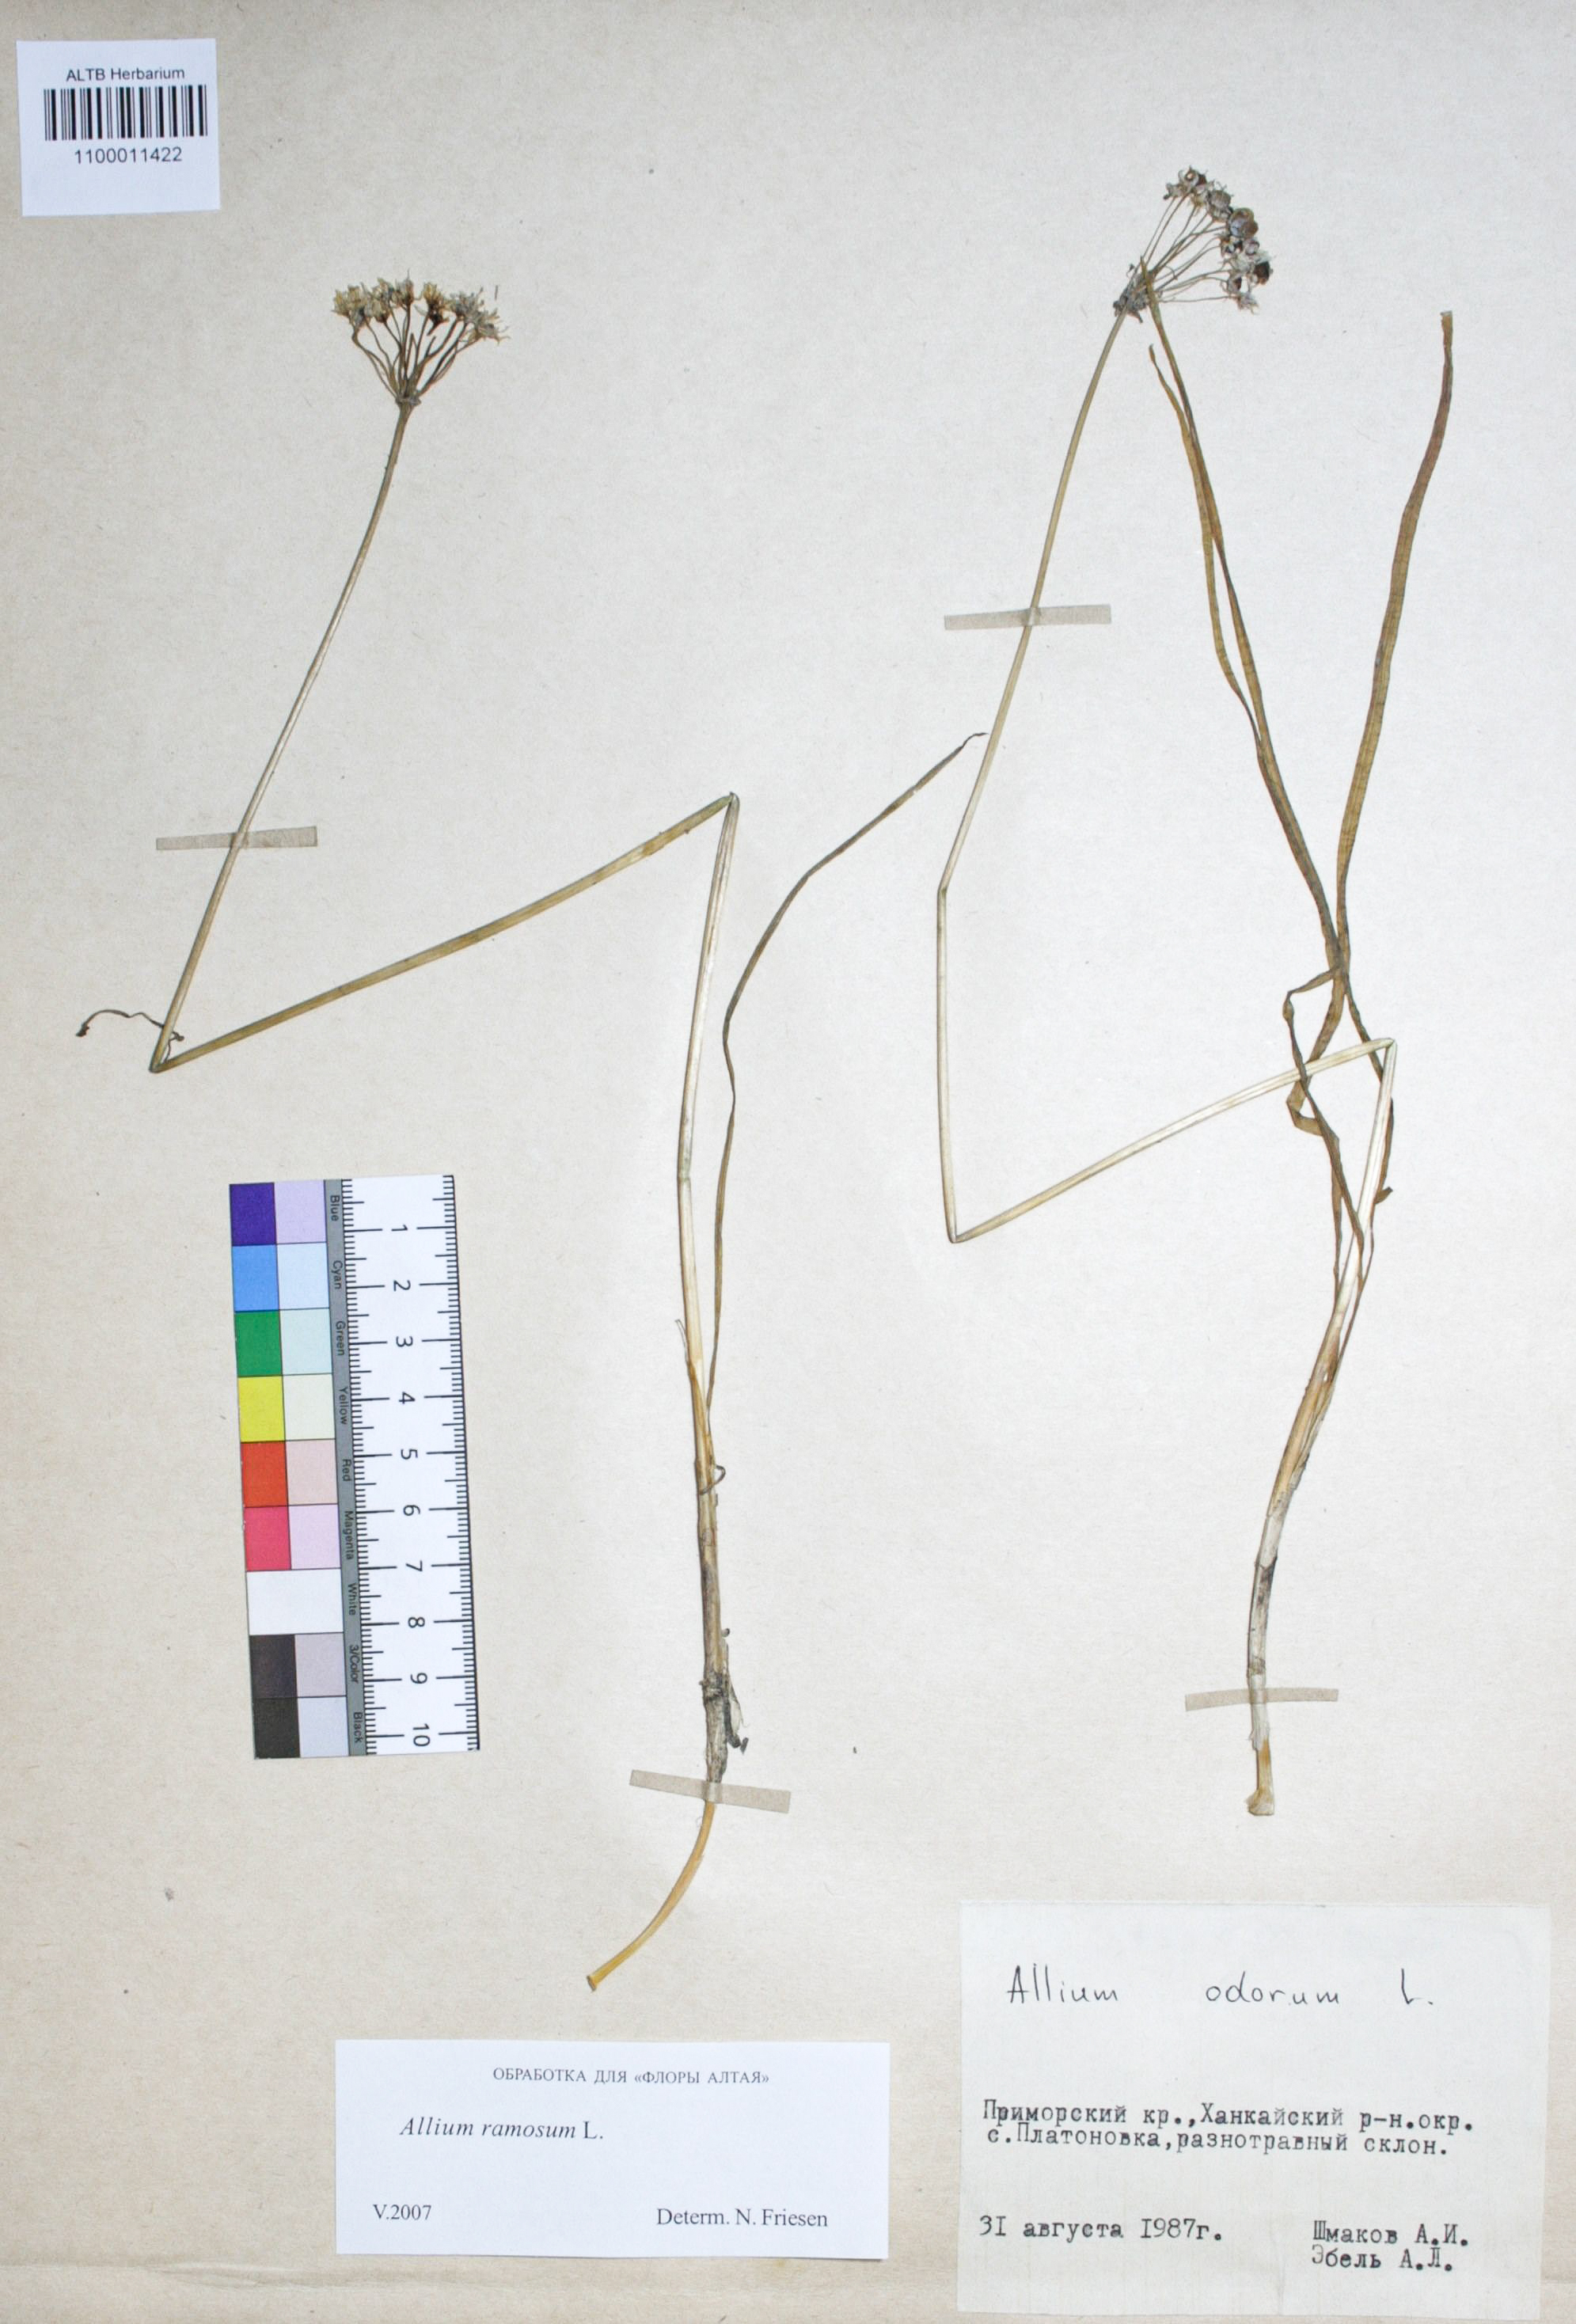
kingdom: Plantae
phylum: Tracheophyta
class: Liliopsida
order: Asparagales
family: Amaryllidaceae
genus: Allium
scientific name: Allium ramosum
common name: Fragrant garlic
